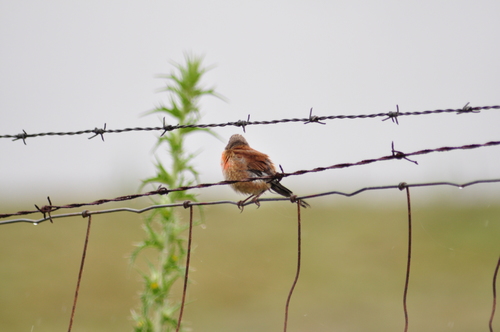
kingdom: Animalia
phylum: Chordata
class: Aves
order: Passeriformes
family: Fringillidae
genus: Linaria
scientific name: Linaria cannabina
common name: Common linnet
